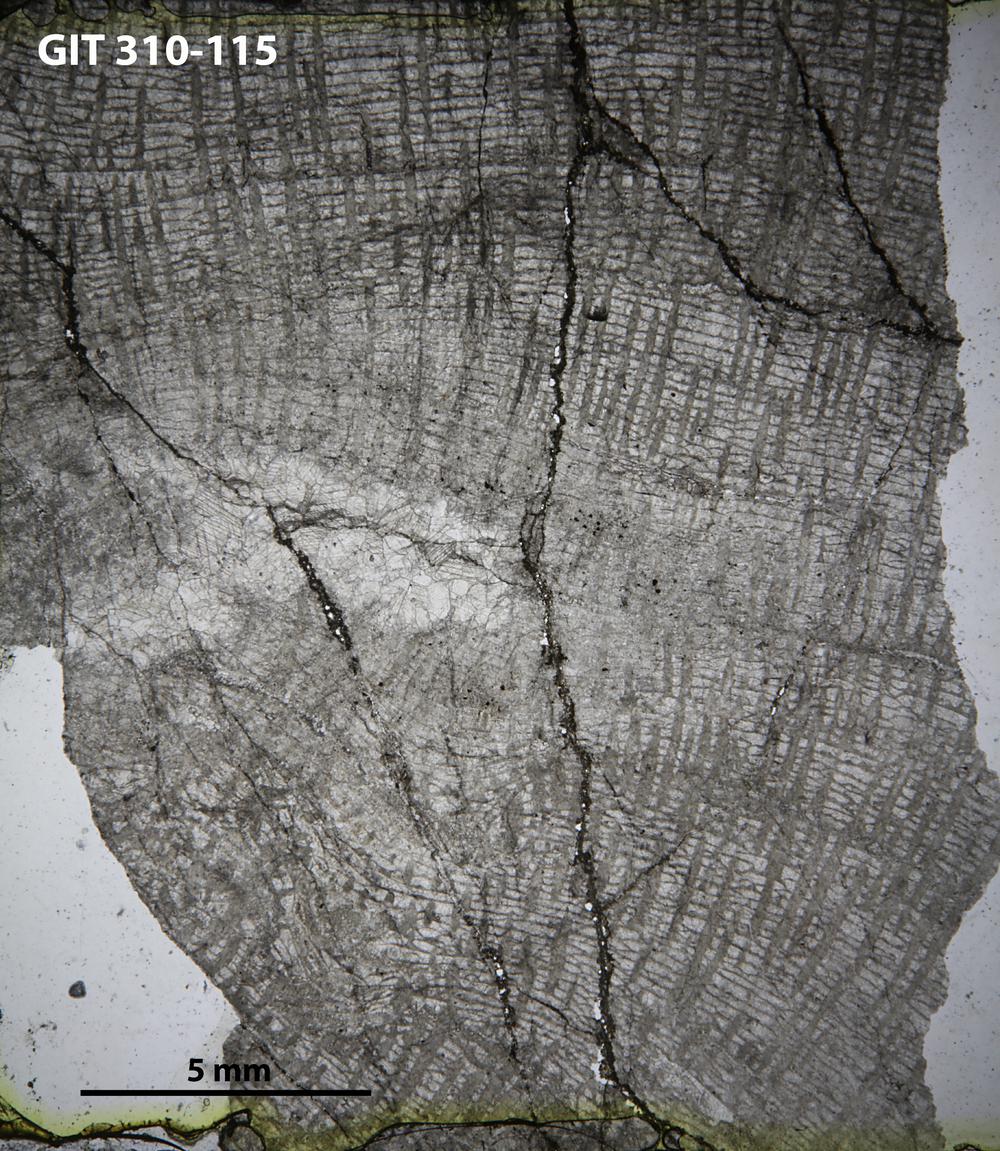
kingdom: Animalia
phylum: Porifera
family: Labechiidae
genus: Labechiella
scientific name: Labechiella regularis
